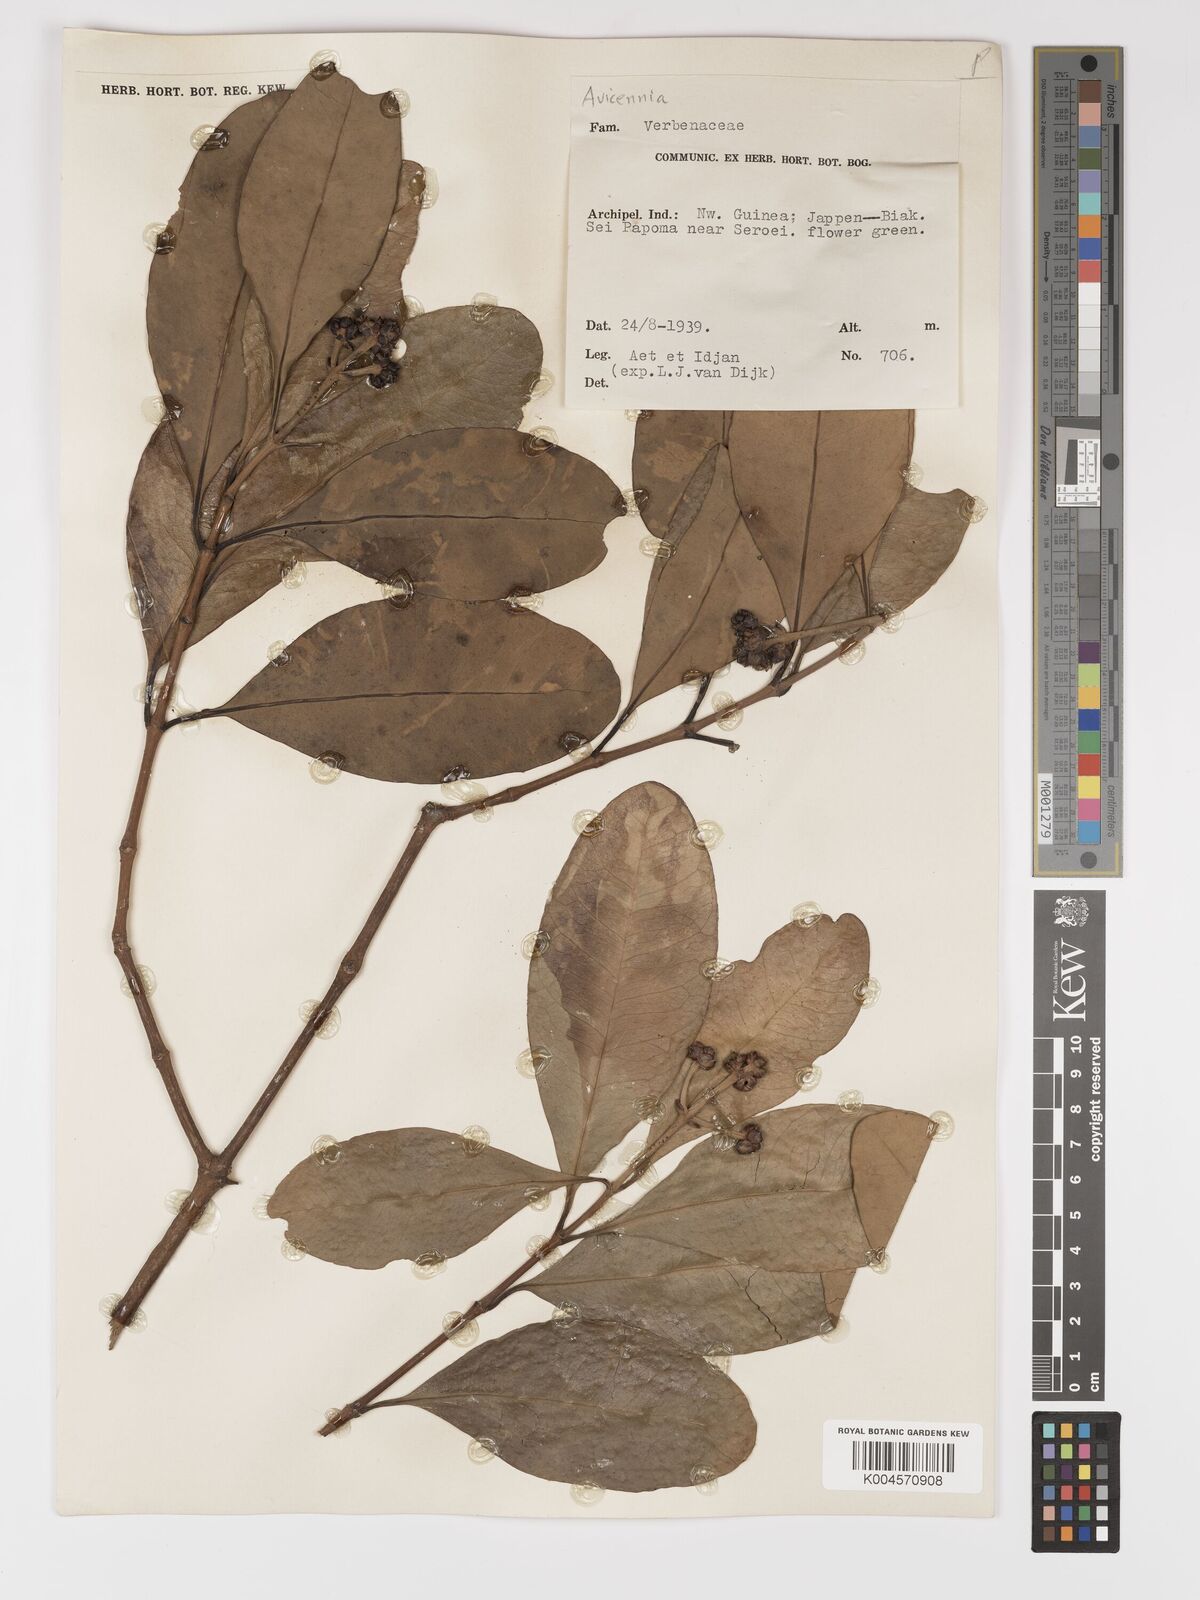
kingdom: Plantae
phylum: Tracheophyta
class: Magnoliopsida
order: Lamiales
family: Acanthaceae
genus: Avicennia
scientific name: Avicennia officinalis
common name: Baen
